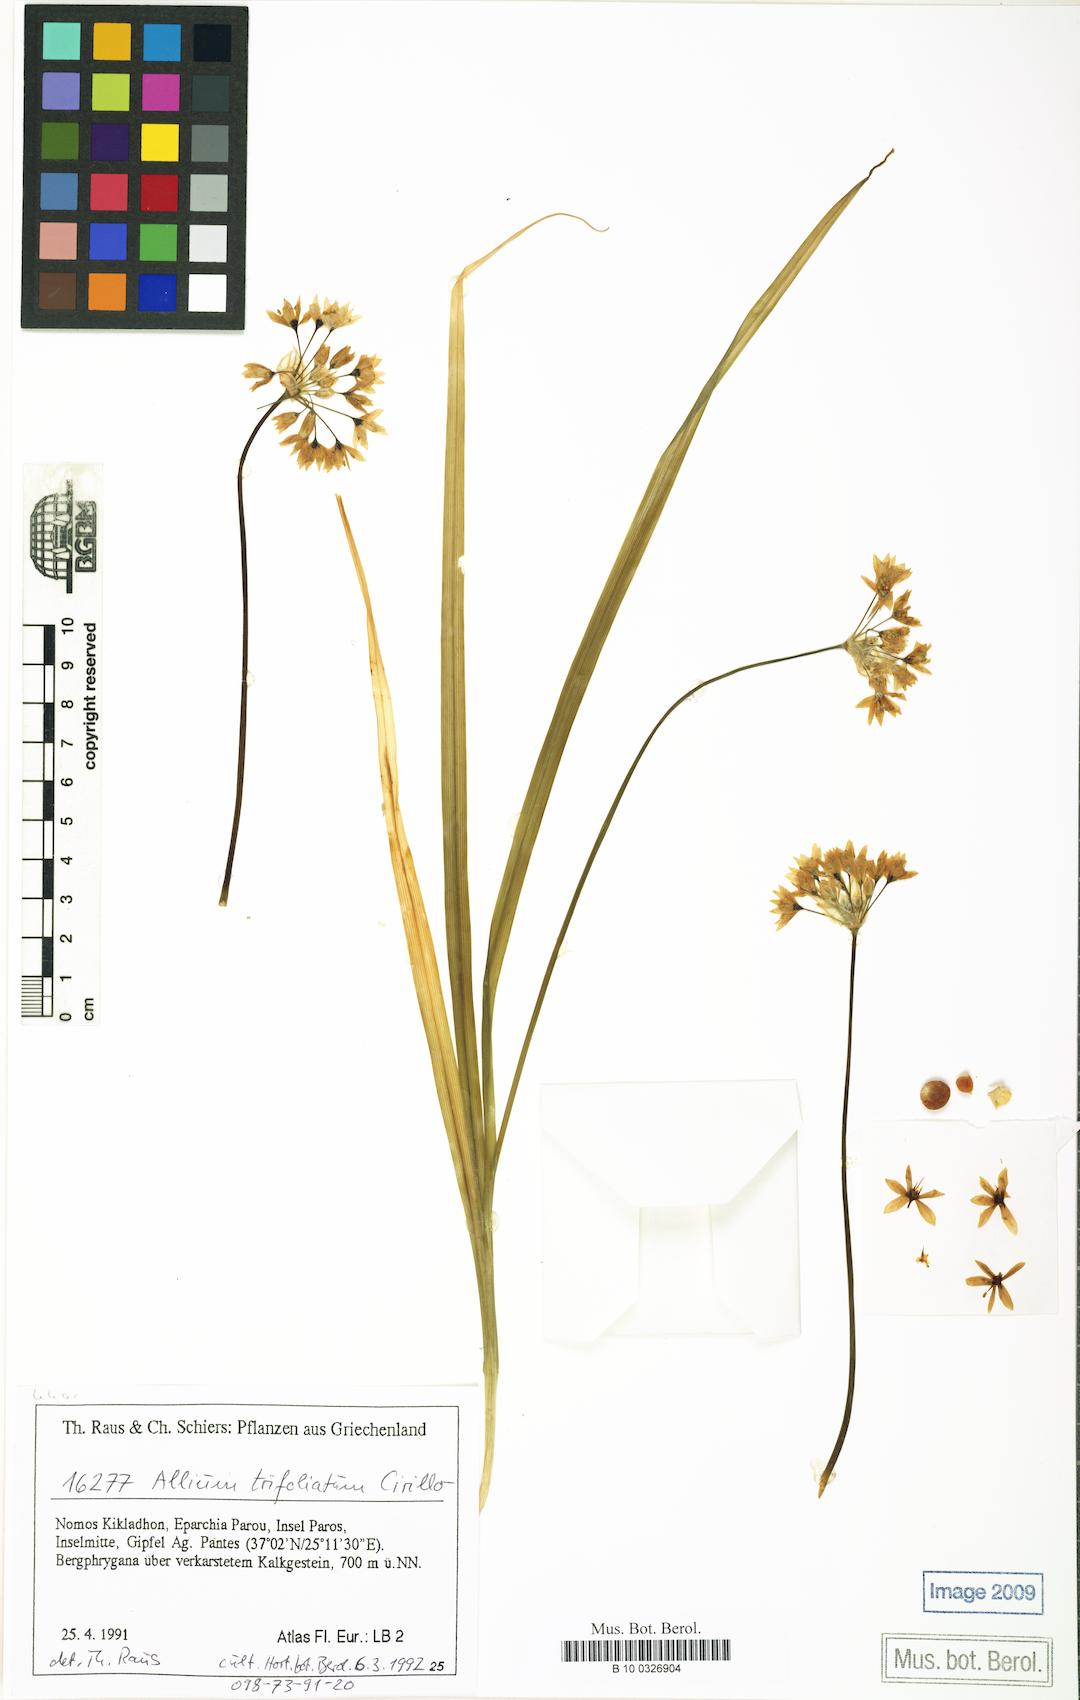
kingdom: Plantae
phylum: Tracheophyta
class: Liliopsida
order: Asparagales
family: Amaryllidaceae
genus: Allium
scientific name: Allium trifoliatum
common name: Pink garlic
